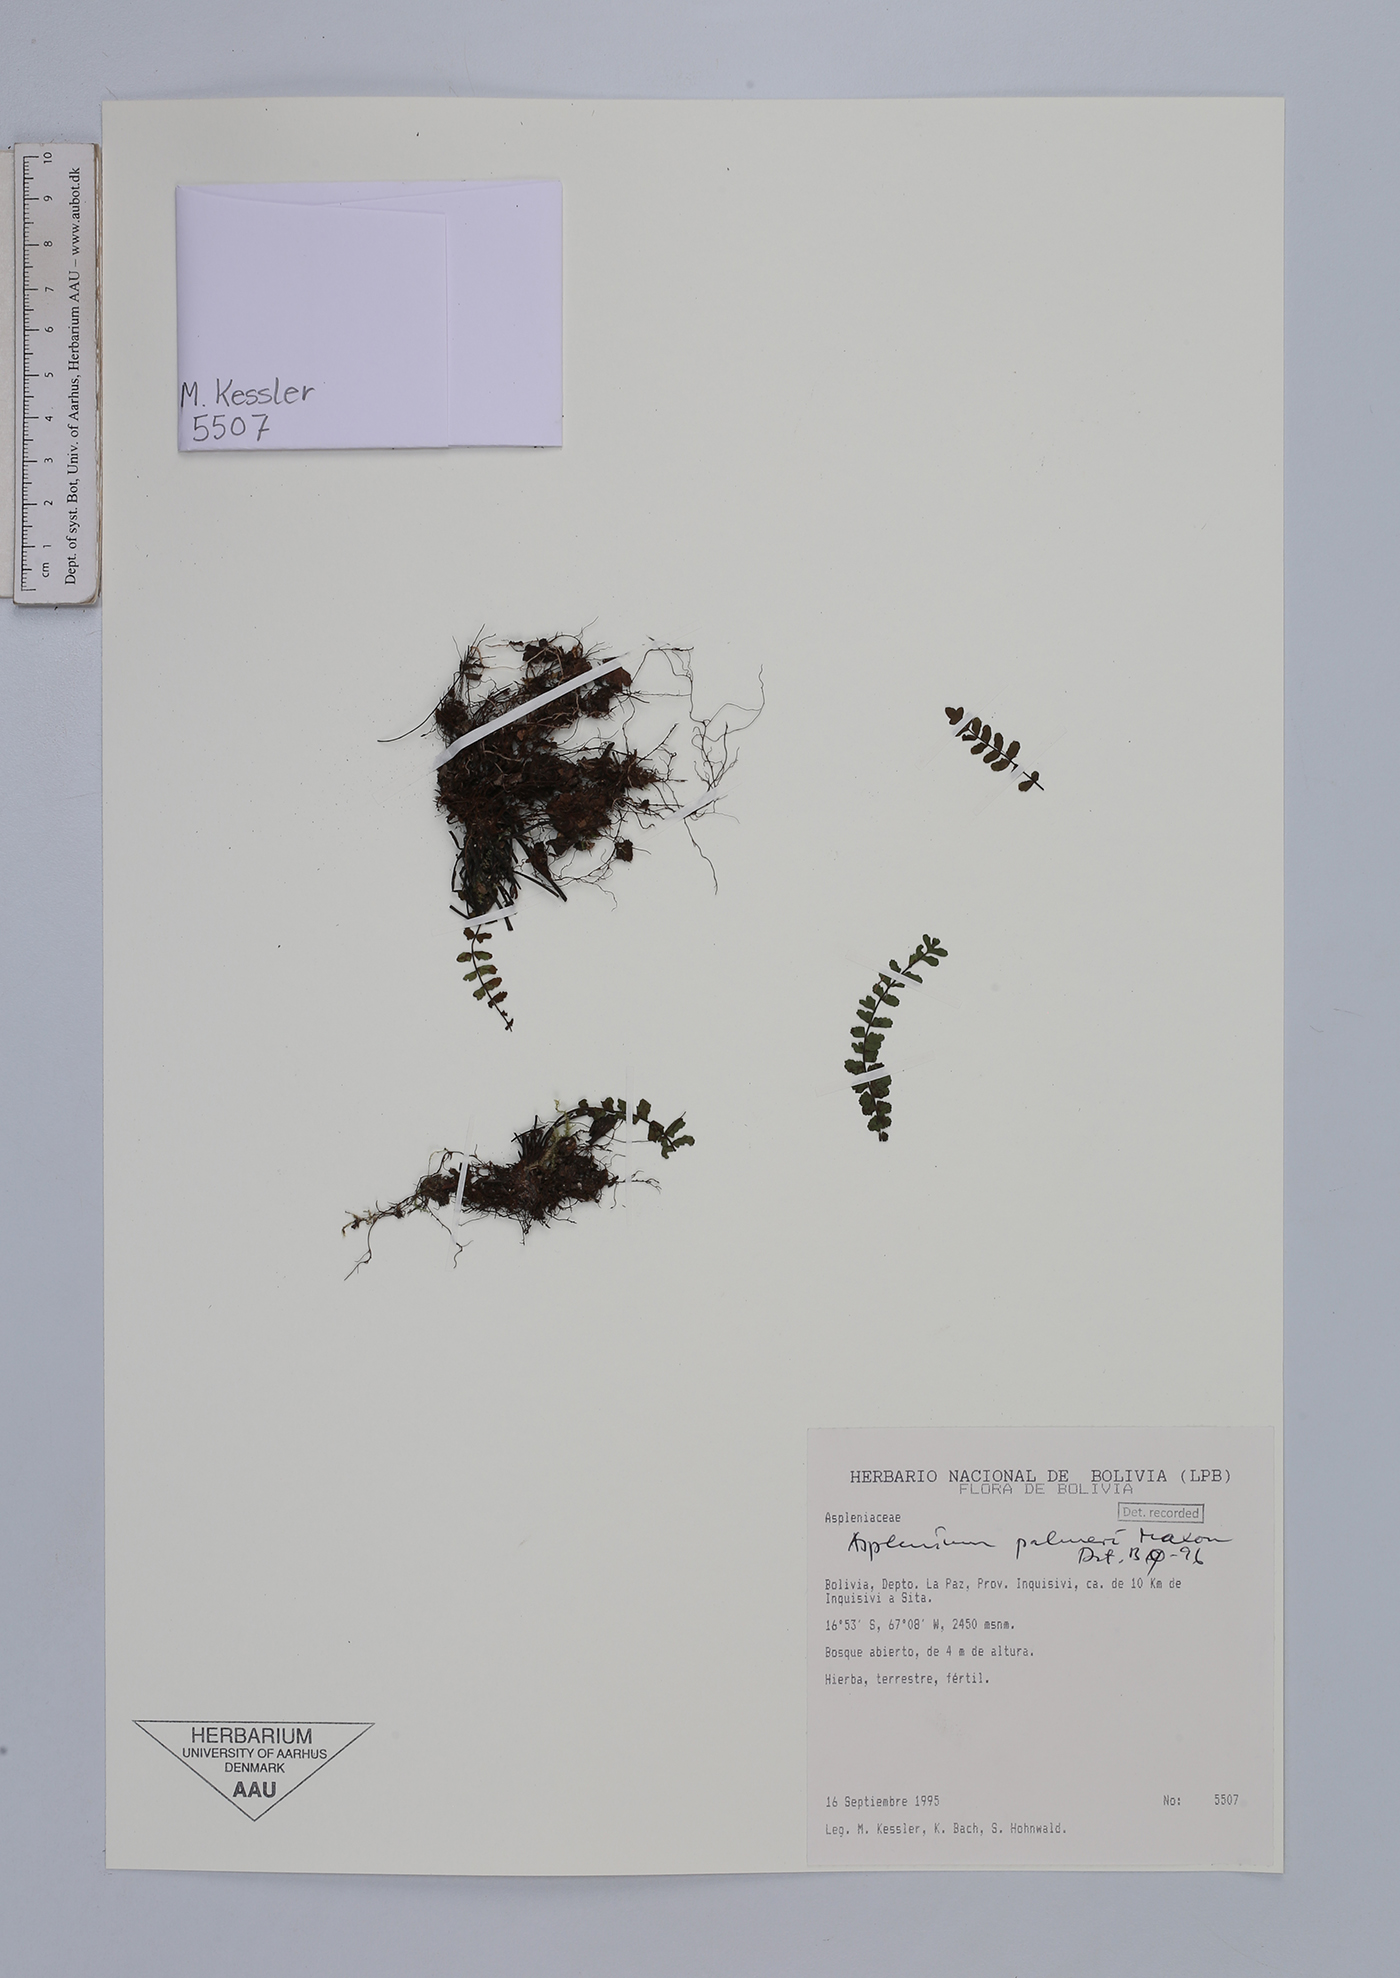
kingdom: Plantae
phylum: Tracheophyta
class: Polypodiopsida
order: Polypodiales
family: Aspleniaceae
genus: Asplenium
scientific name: Asplenium palmeri
